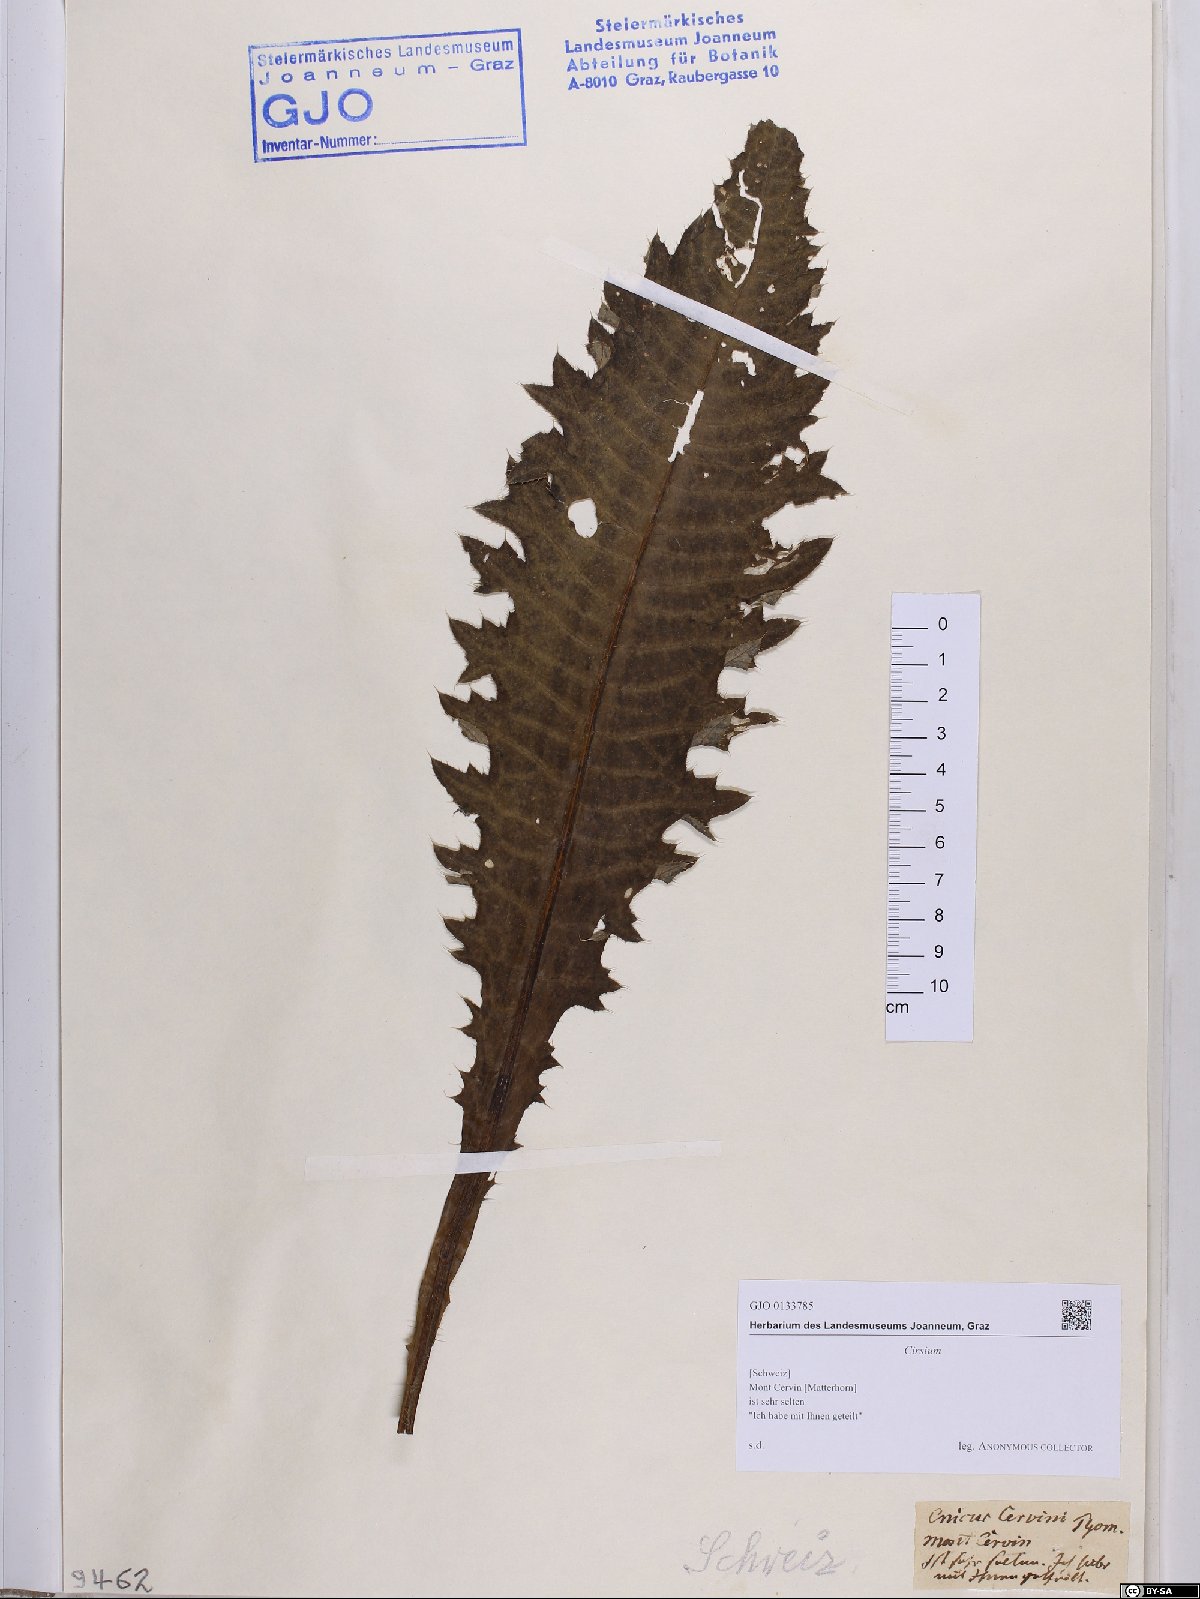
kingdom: Plantae
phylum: Tracheophyta
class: Magnoliopsida
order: Asterales
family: Asteraceae
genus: Cirsium
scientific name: Cirsium
